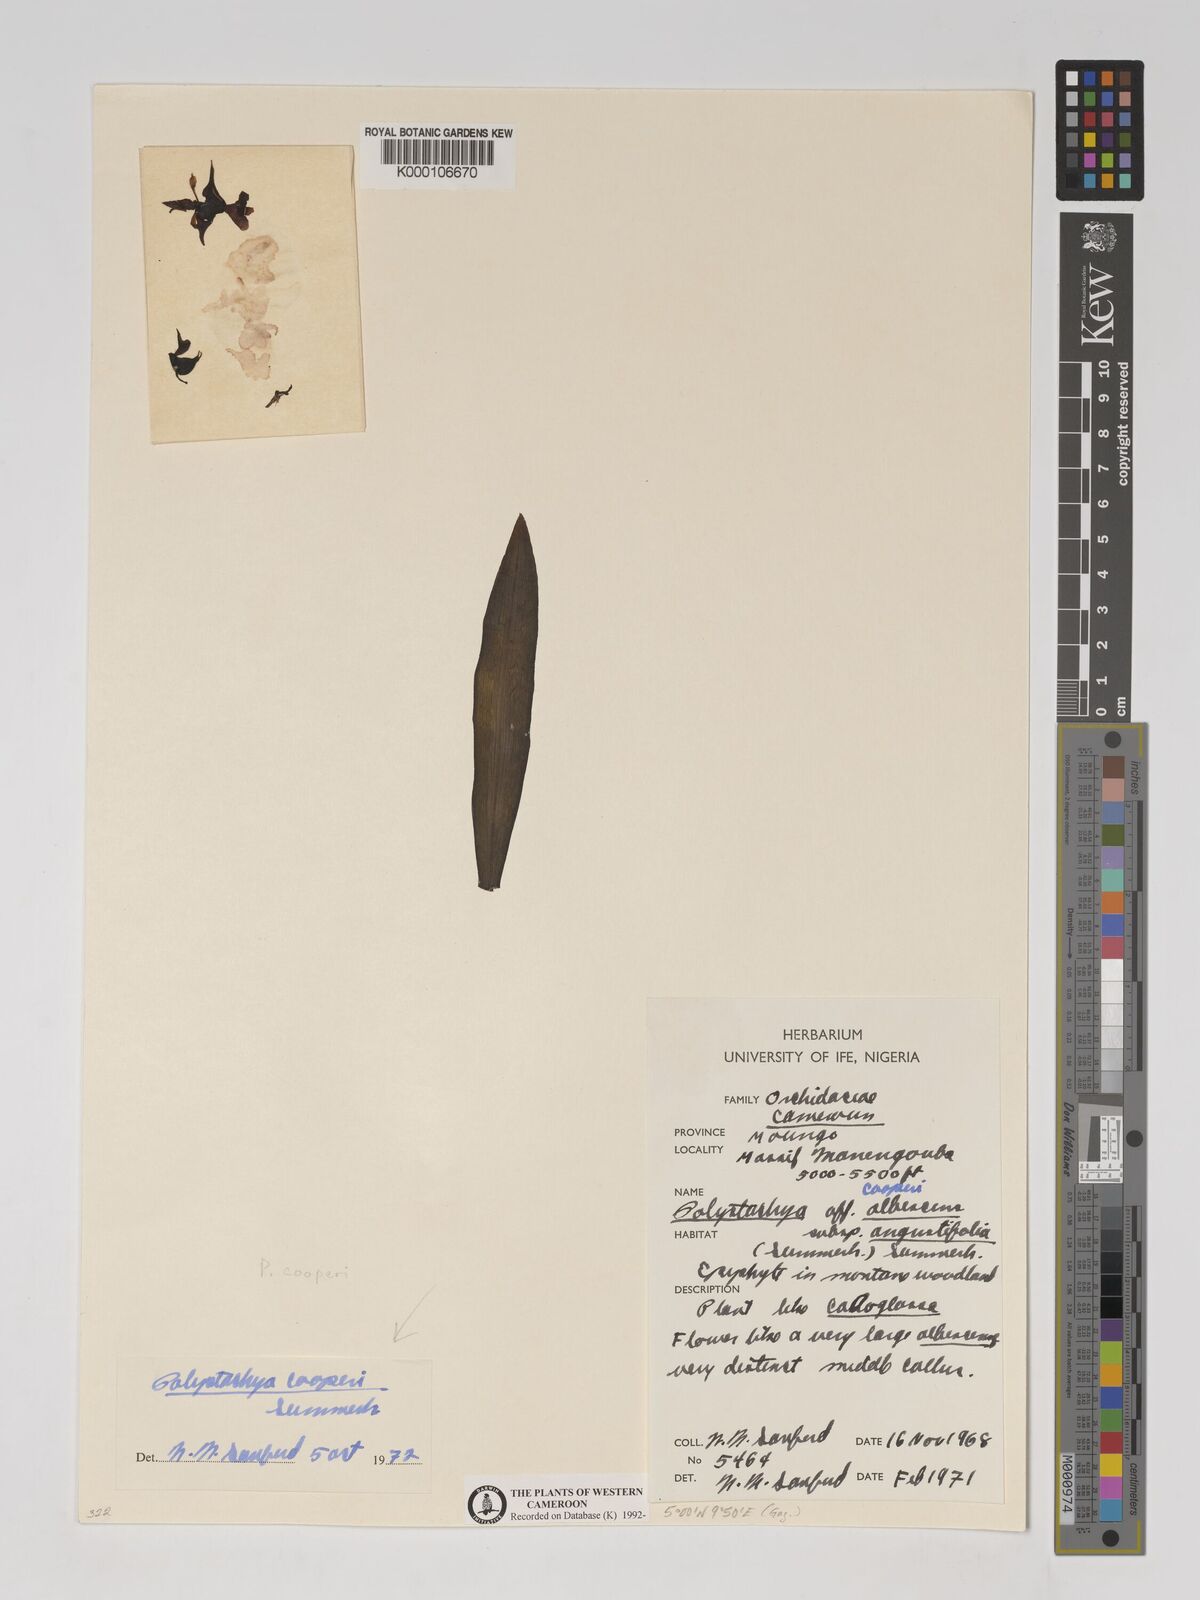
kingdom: Plantae
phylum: Tracheophyta
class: Liliopsida
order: Asparagales
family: Orchidaceae
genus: Polystachya
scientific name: Polystachya cooperi
